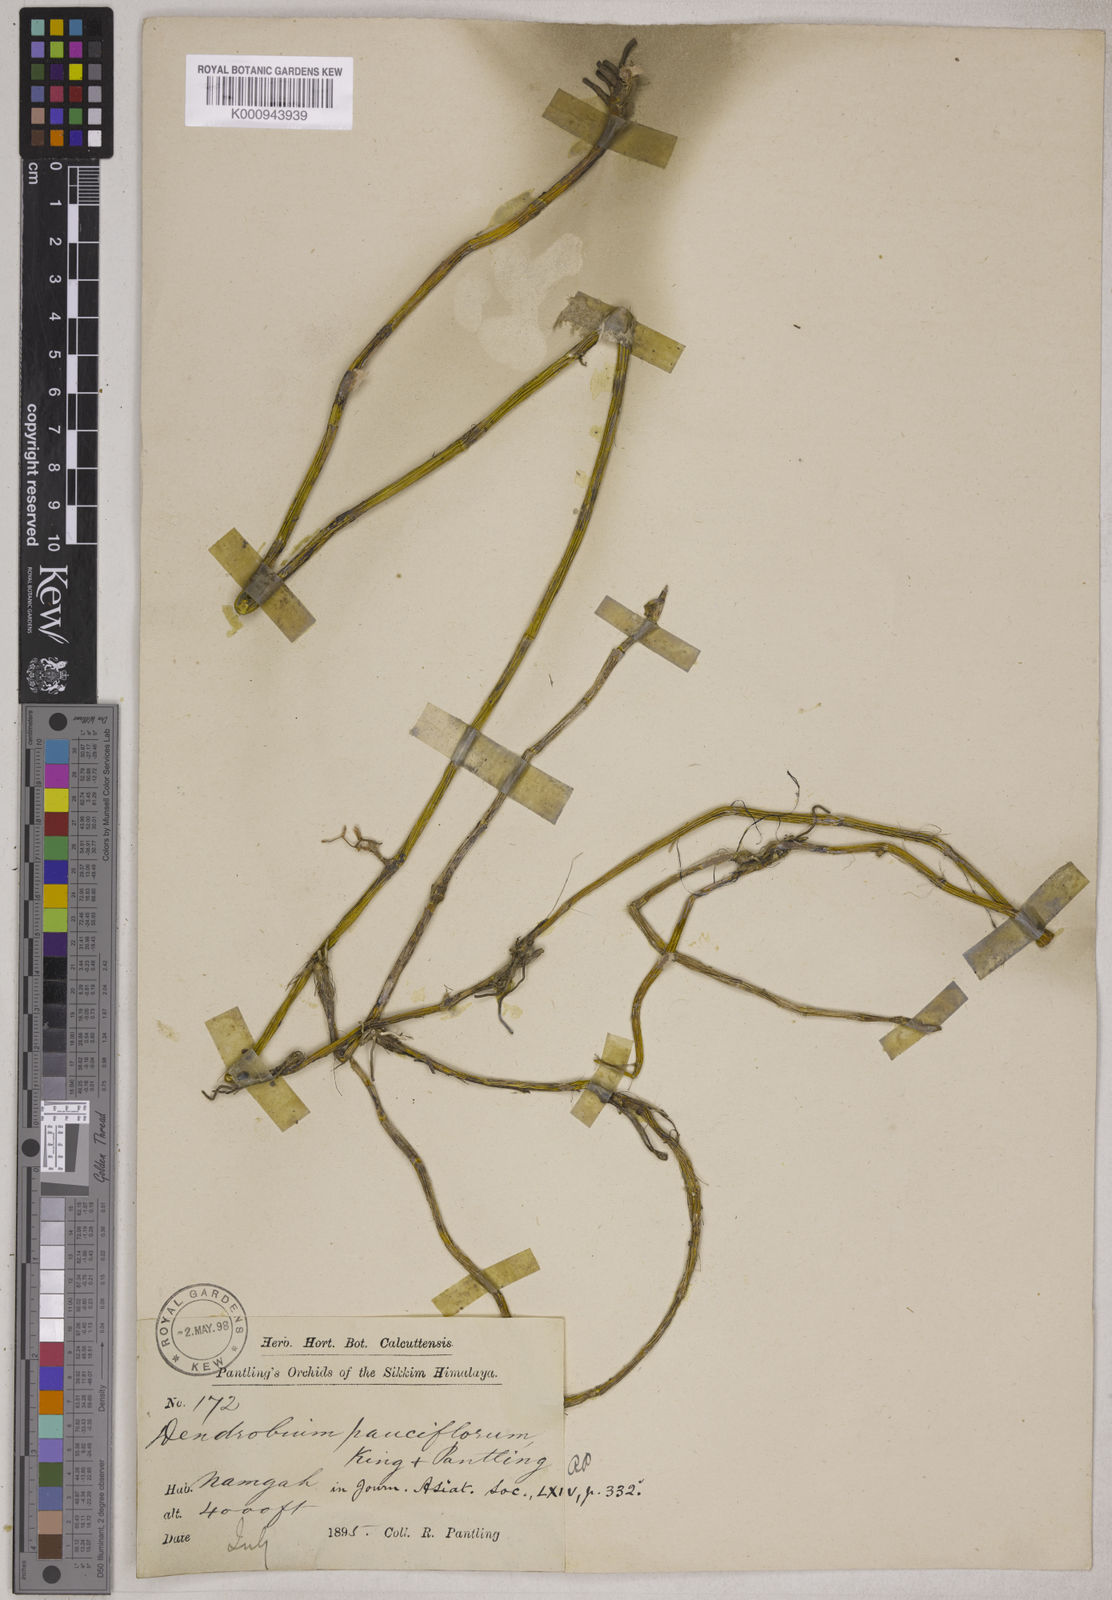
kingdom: Plantae
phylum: Tracheophyta
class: Liliopsida
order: Asparagales
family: Orchidaceae
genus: Dendrobium
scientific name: Dendrobium praecinctum
